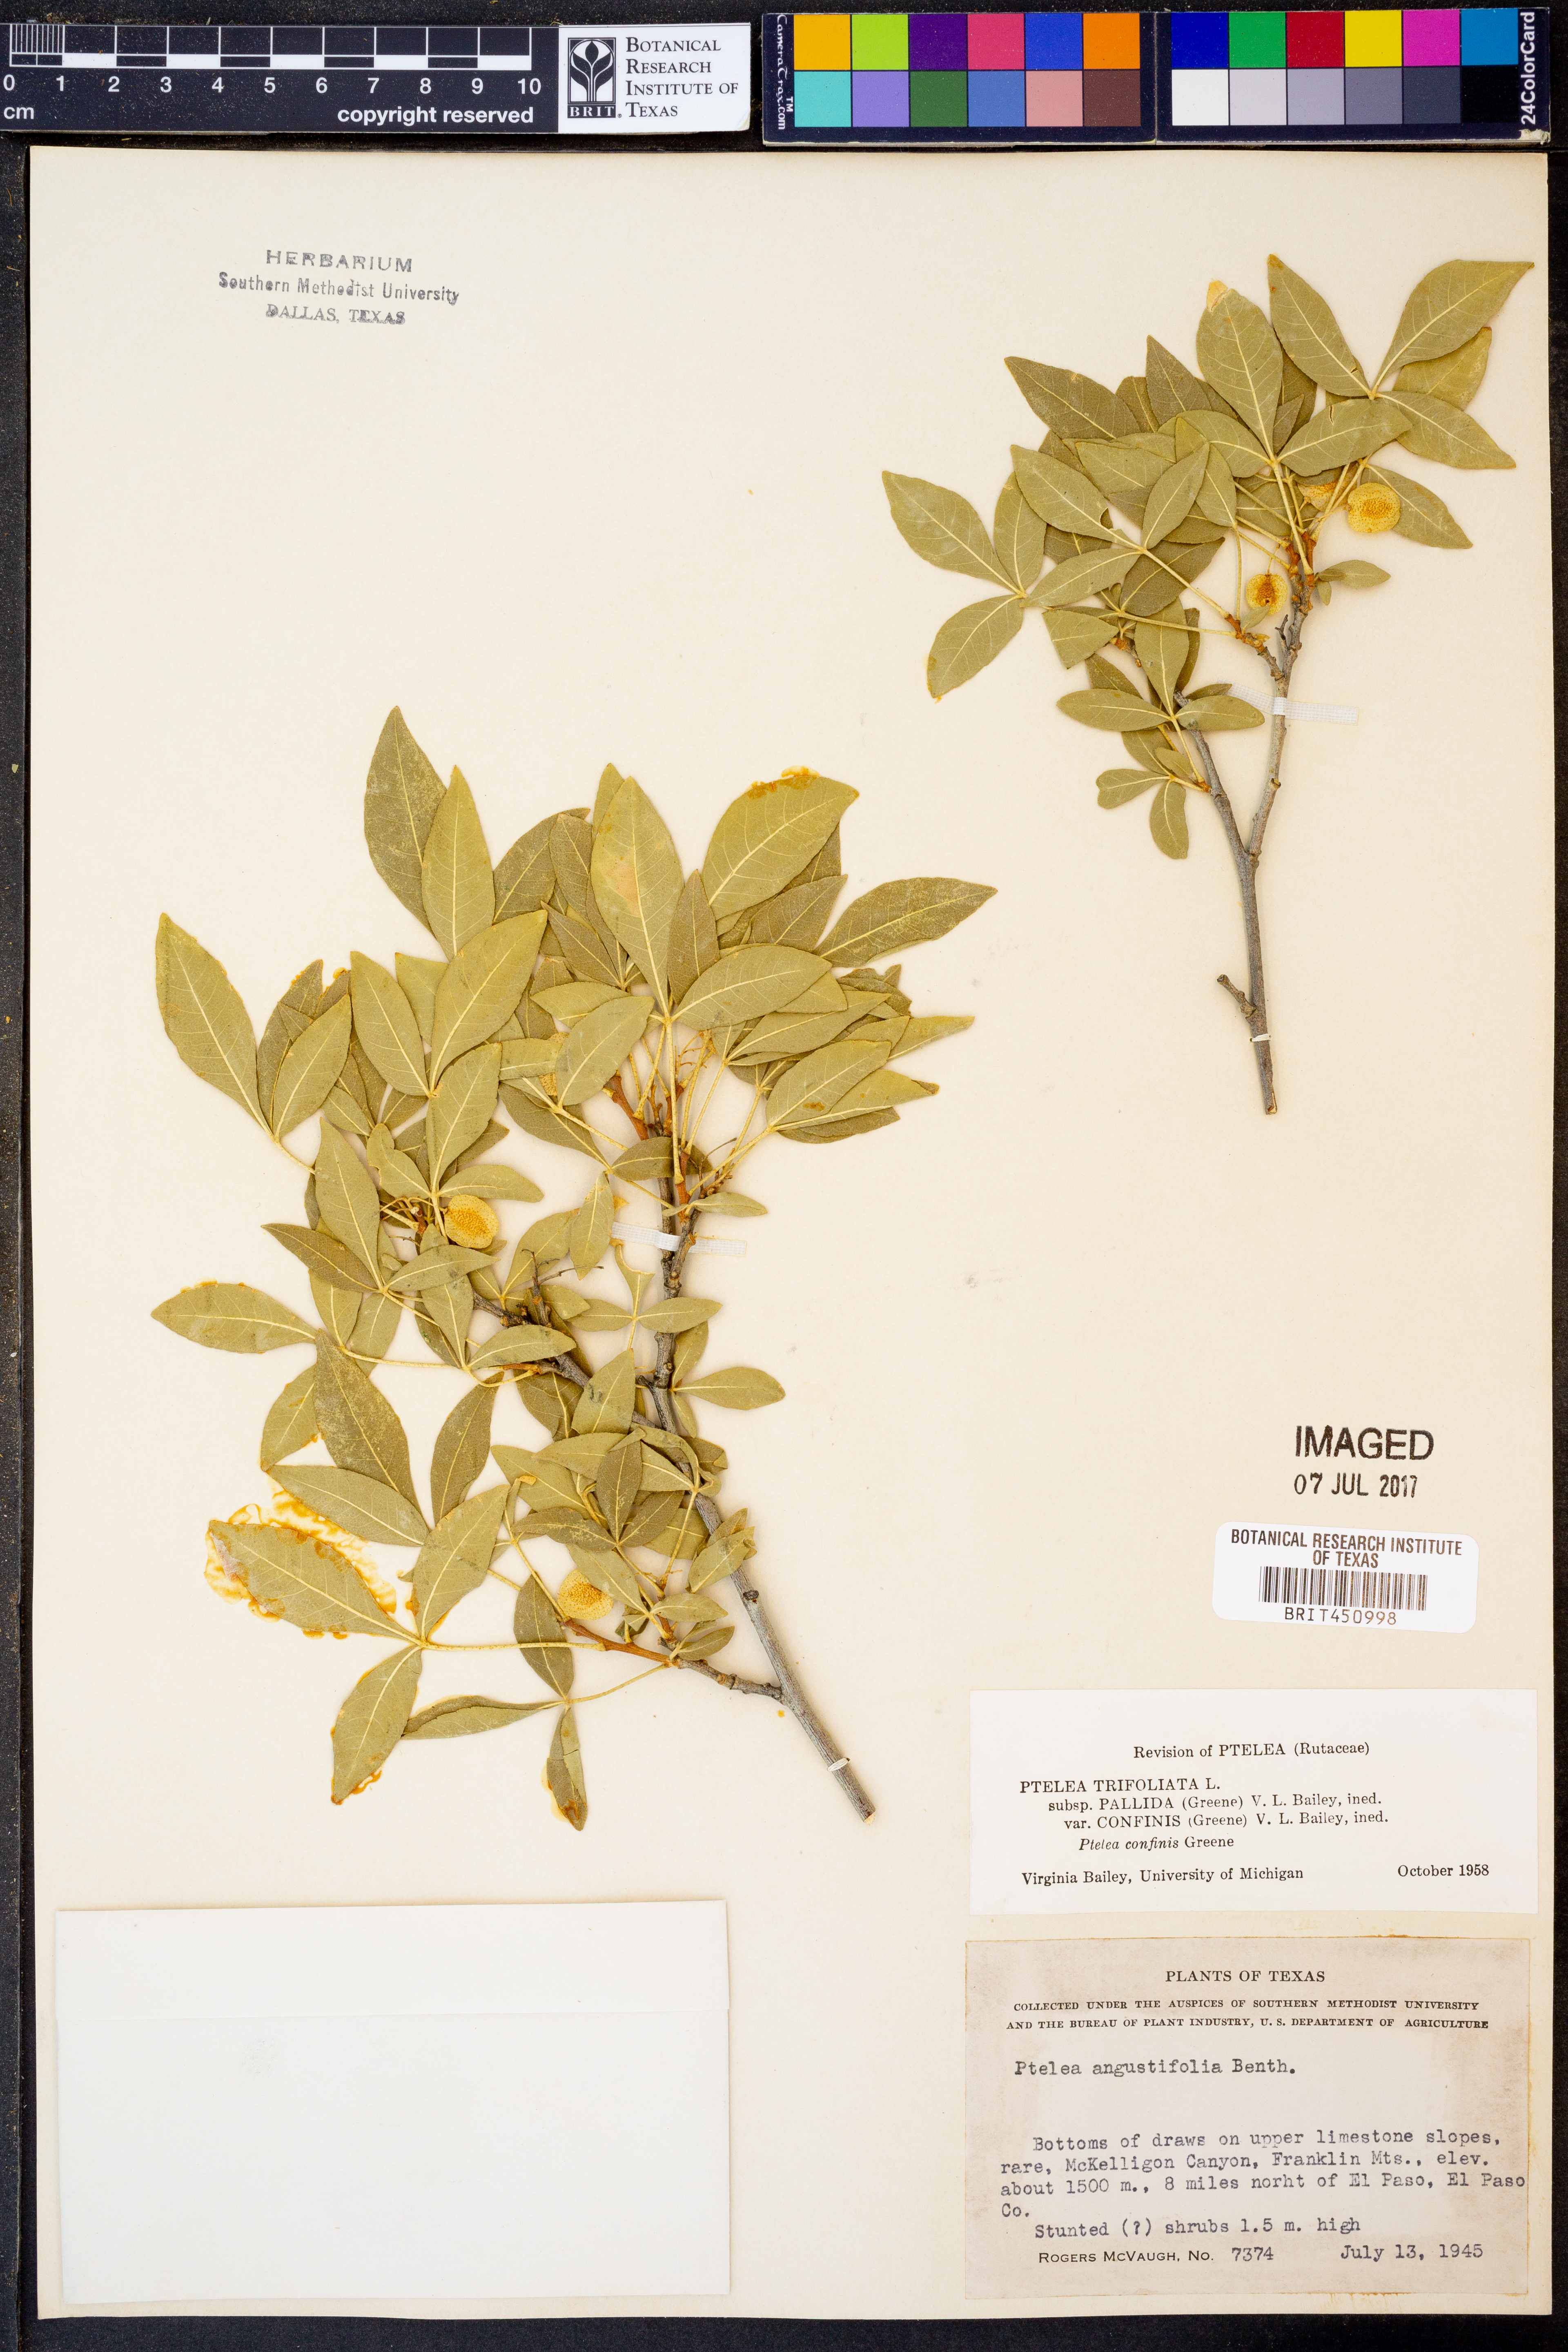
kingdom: Plantae
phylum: Tracheophyta
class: Magnoliopsida
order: Sapindales
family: Rutaceae
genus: Ptelea
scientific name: Ptelea trifoliata
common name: Common hop-tree
